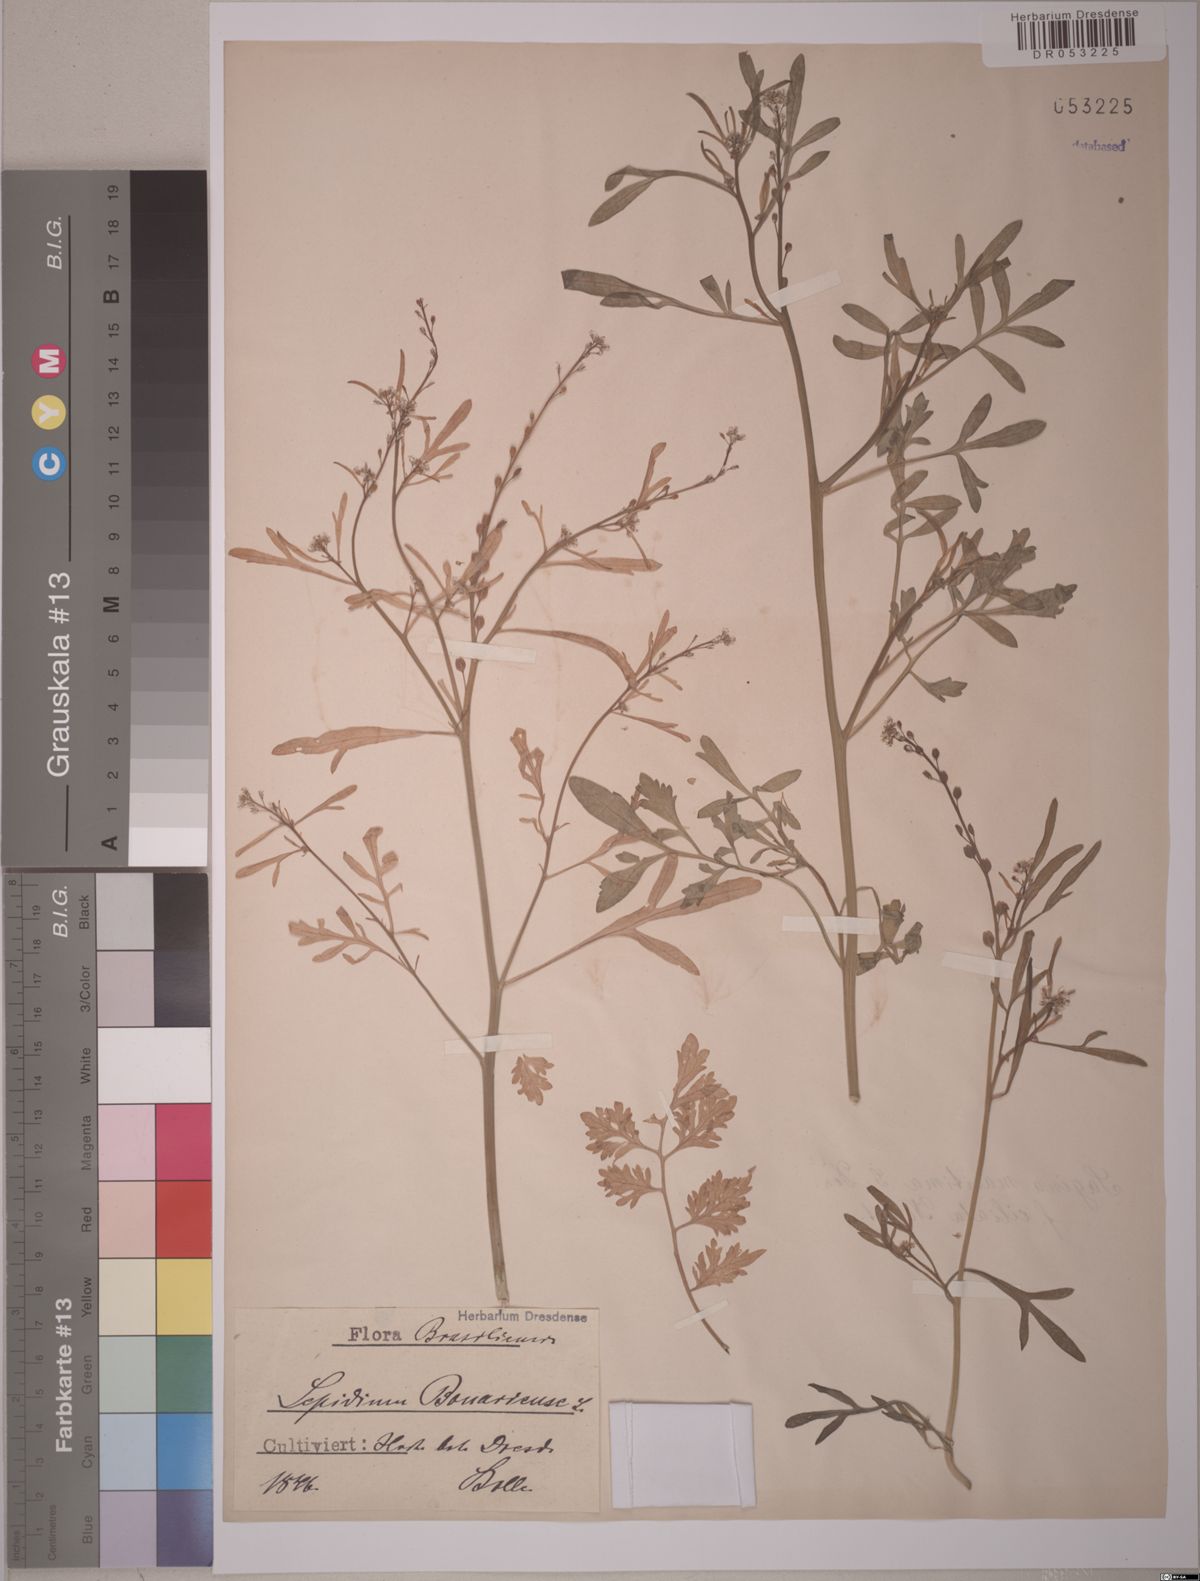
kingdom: Plantae
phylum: Tracheophyta
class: Magnoliopsida
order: Brassicales
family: Brassicaceae
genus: Lepidium
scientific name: Lepidium bonariense
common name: Argentine pepperwort
